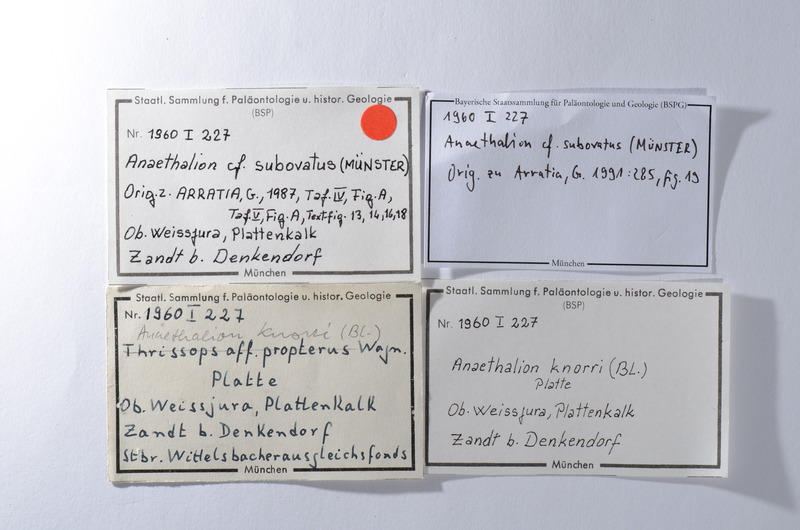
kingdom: Animalia
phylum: Chordata
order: Elopiformes
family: Anaethalionidae
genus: Anaethalion
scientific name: Anaethalion subovatus
